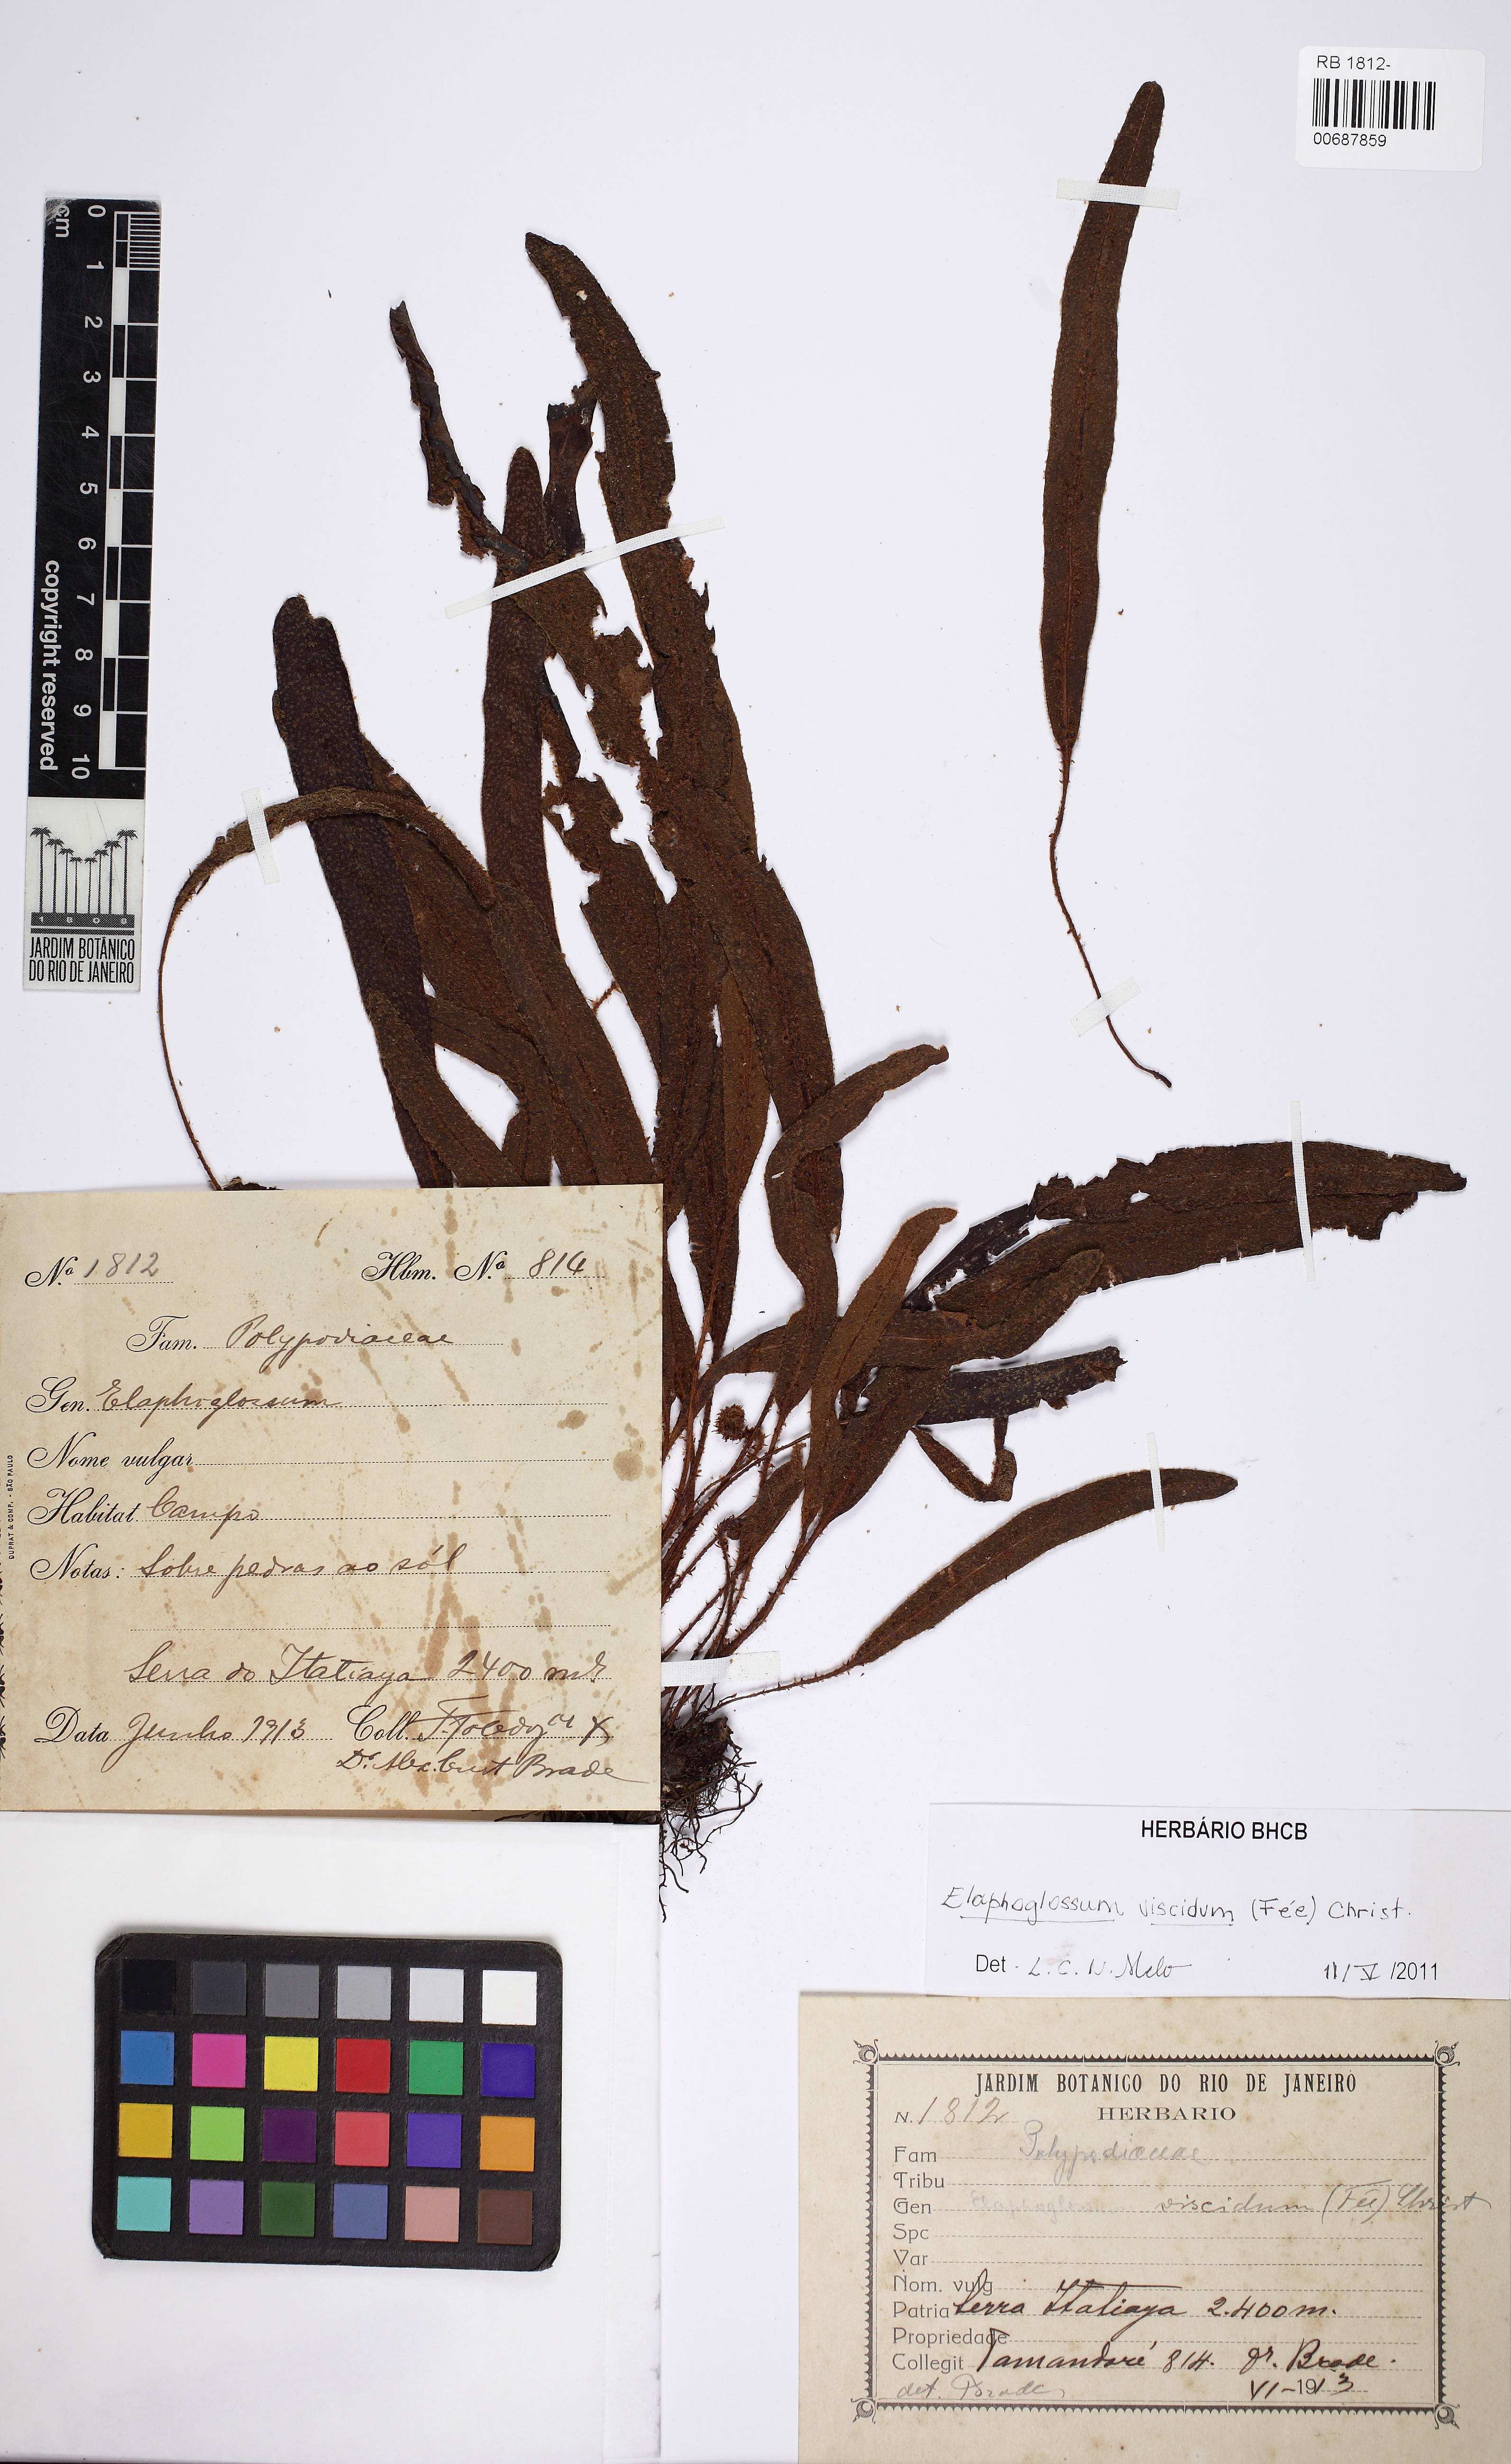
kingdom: Plantae
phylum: Tracheophyta
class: Polypodiopsida
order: Polypodiales
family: Dryopteridaceae
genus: Elaphoglossum
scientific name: Elaphoglossum viscidum
